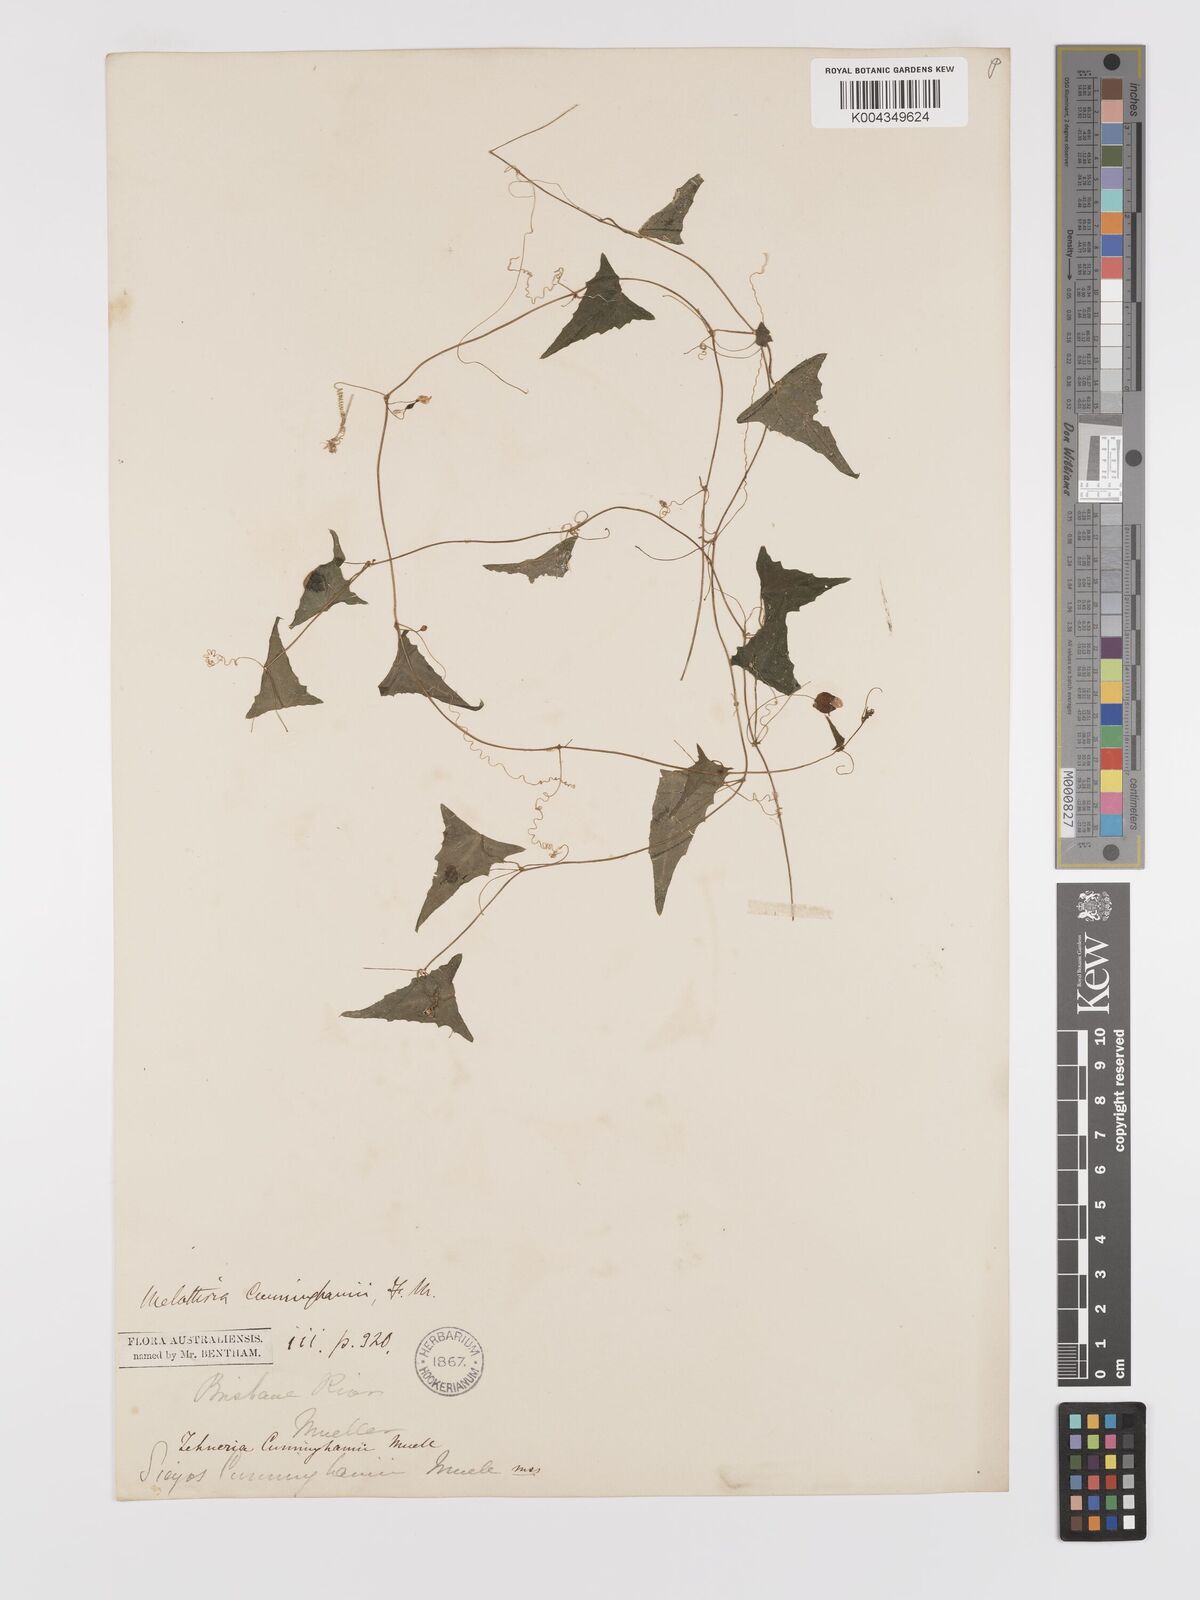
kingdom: Plantae
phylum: Tracheophyta
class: Magnoliopsida
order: Cucurbitales
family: Cucurbitaceae
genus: Zehneria
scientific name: Zehneria cunninghamii
